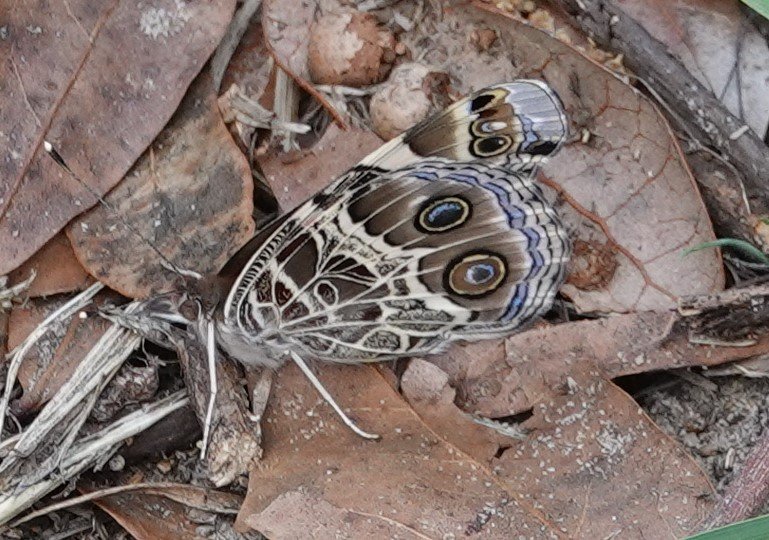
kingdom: Animalia
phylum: Arthropoda
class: Insecta
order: Lepidoptera
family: Nymphalidae
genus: Vanessa
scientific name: Vanessa virginiensis
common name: American Lady
